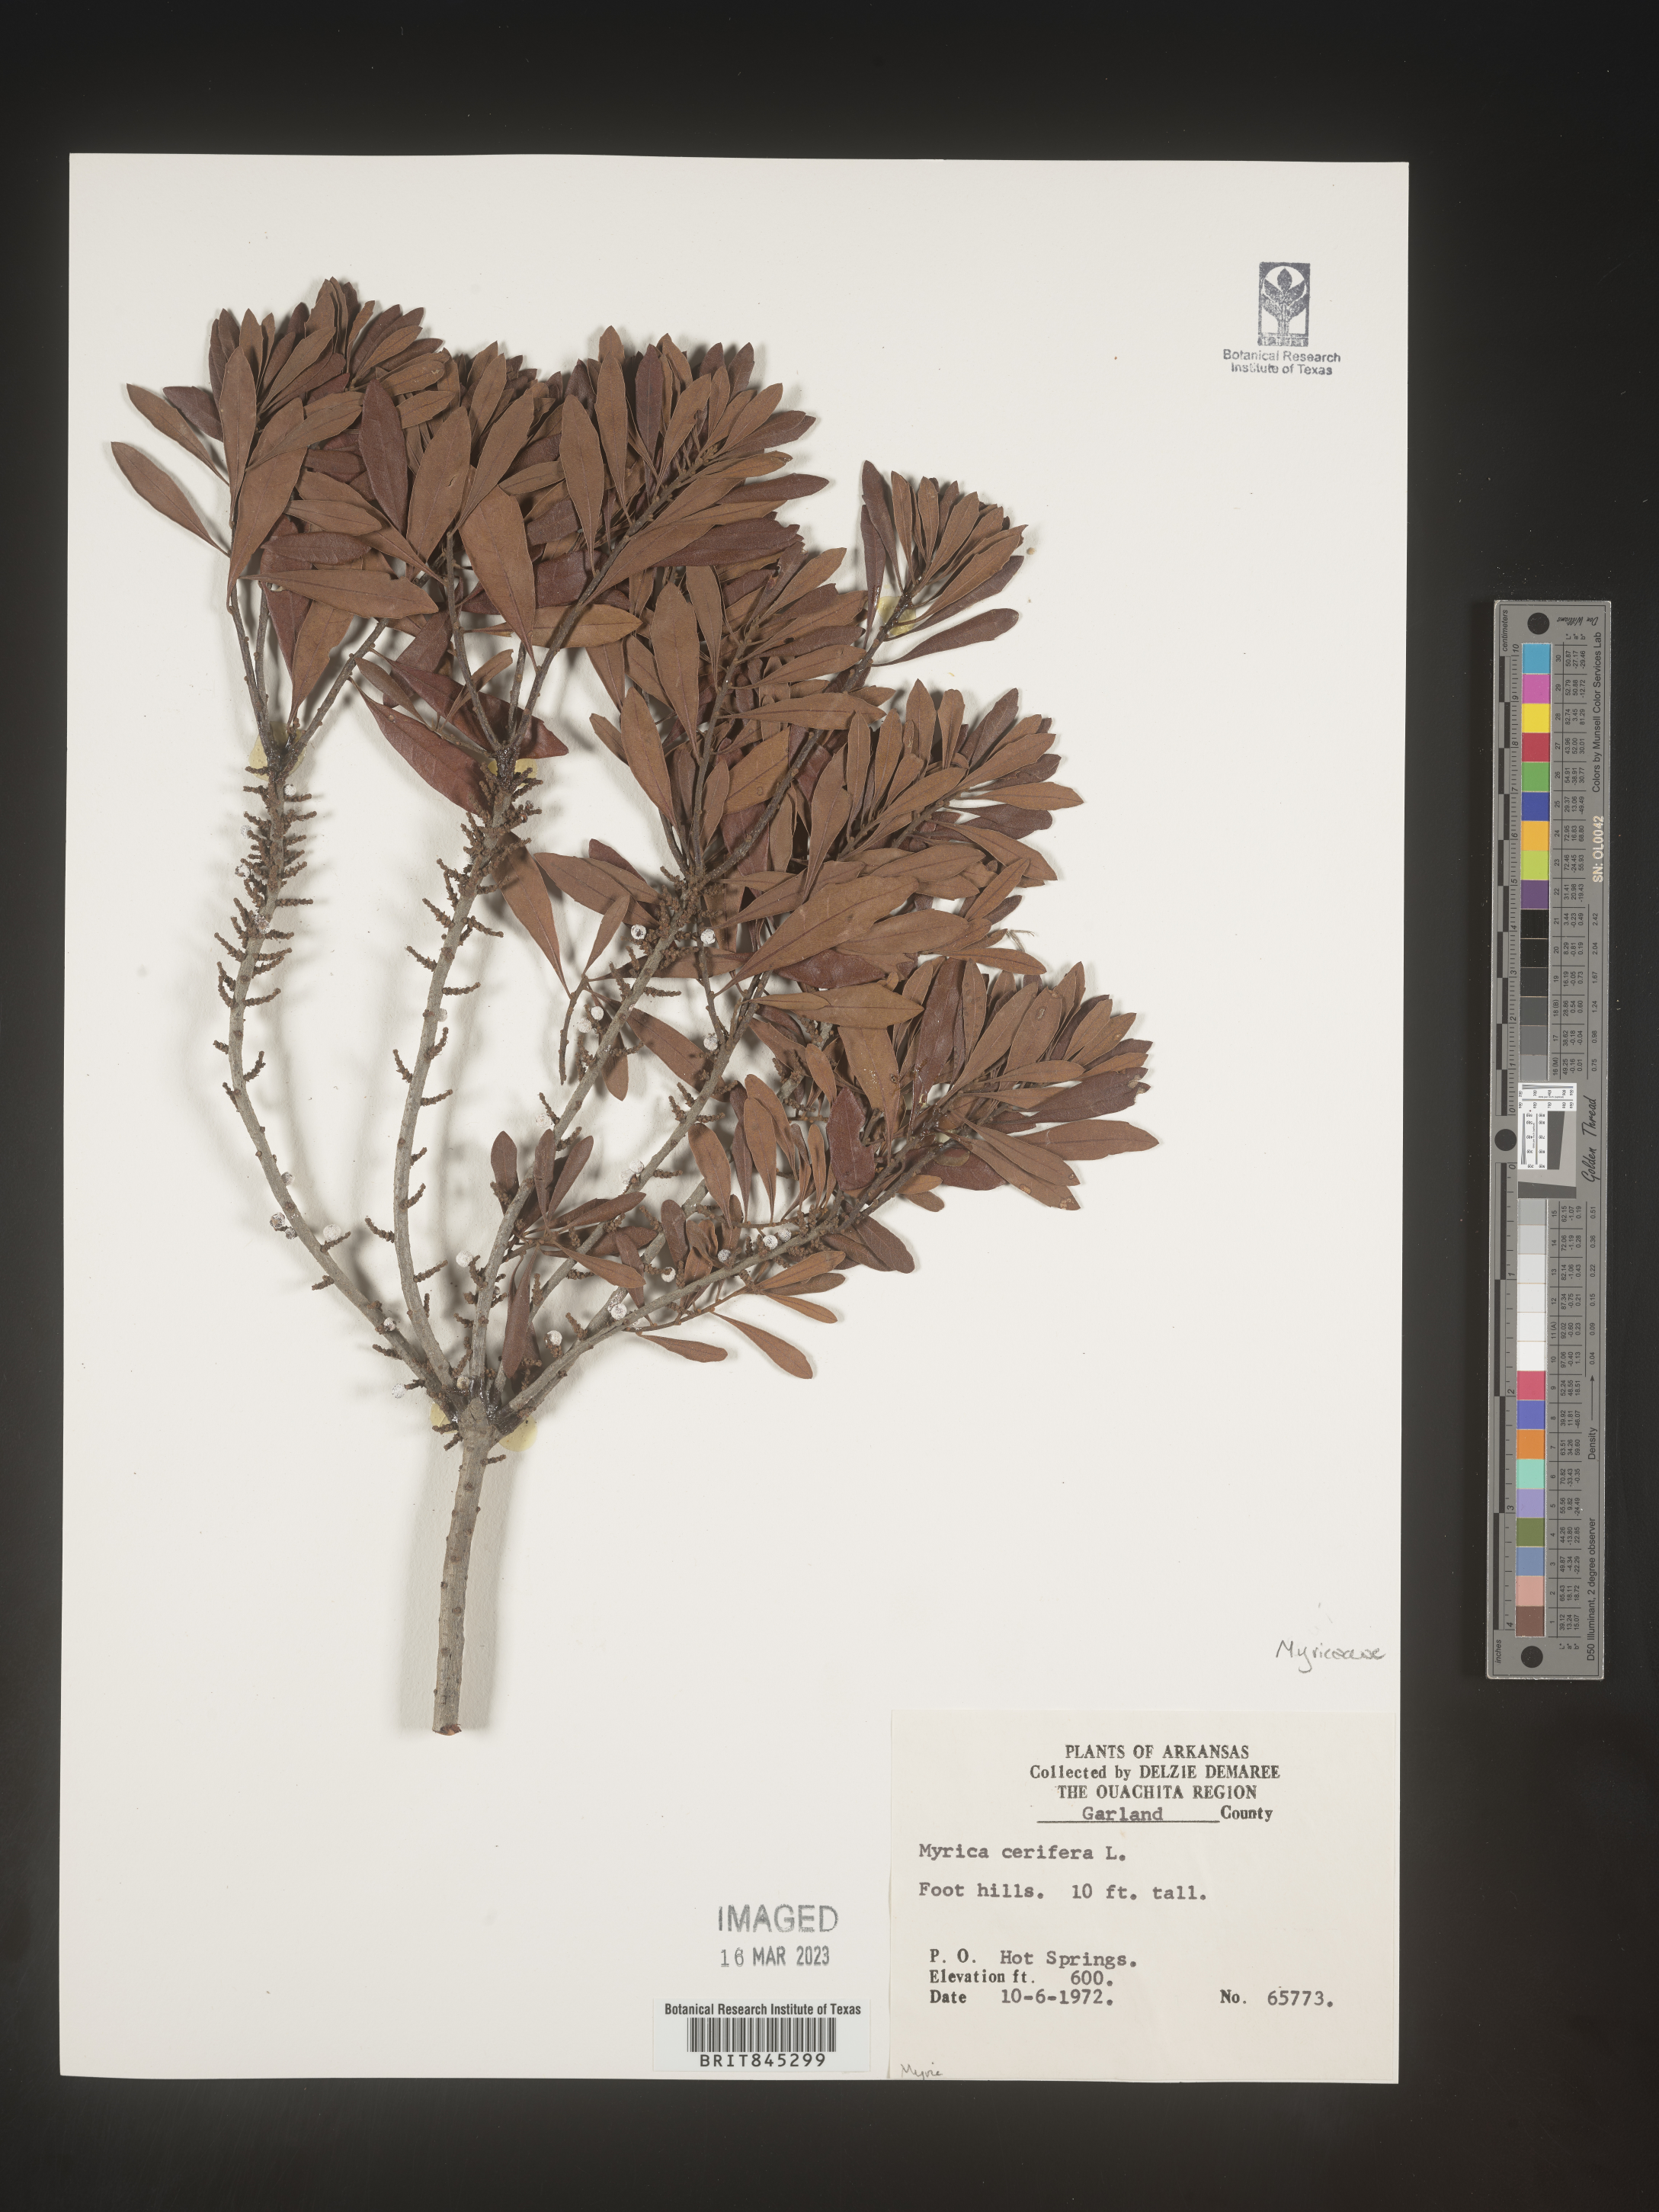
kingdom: Plantae
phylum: Tracheophyta
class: Magnoliopsida
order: Fagales
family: Myricaceae
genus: Morella
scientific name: Morella cerifera
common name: Wax myrtle
